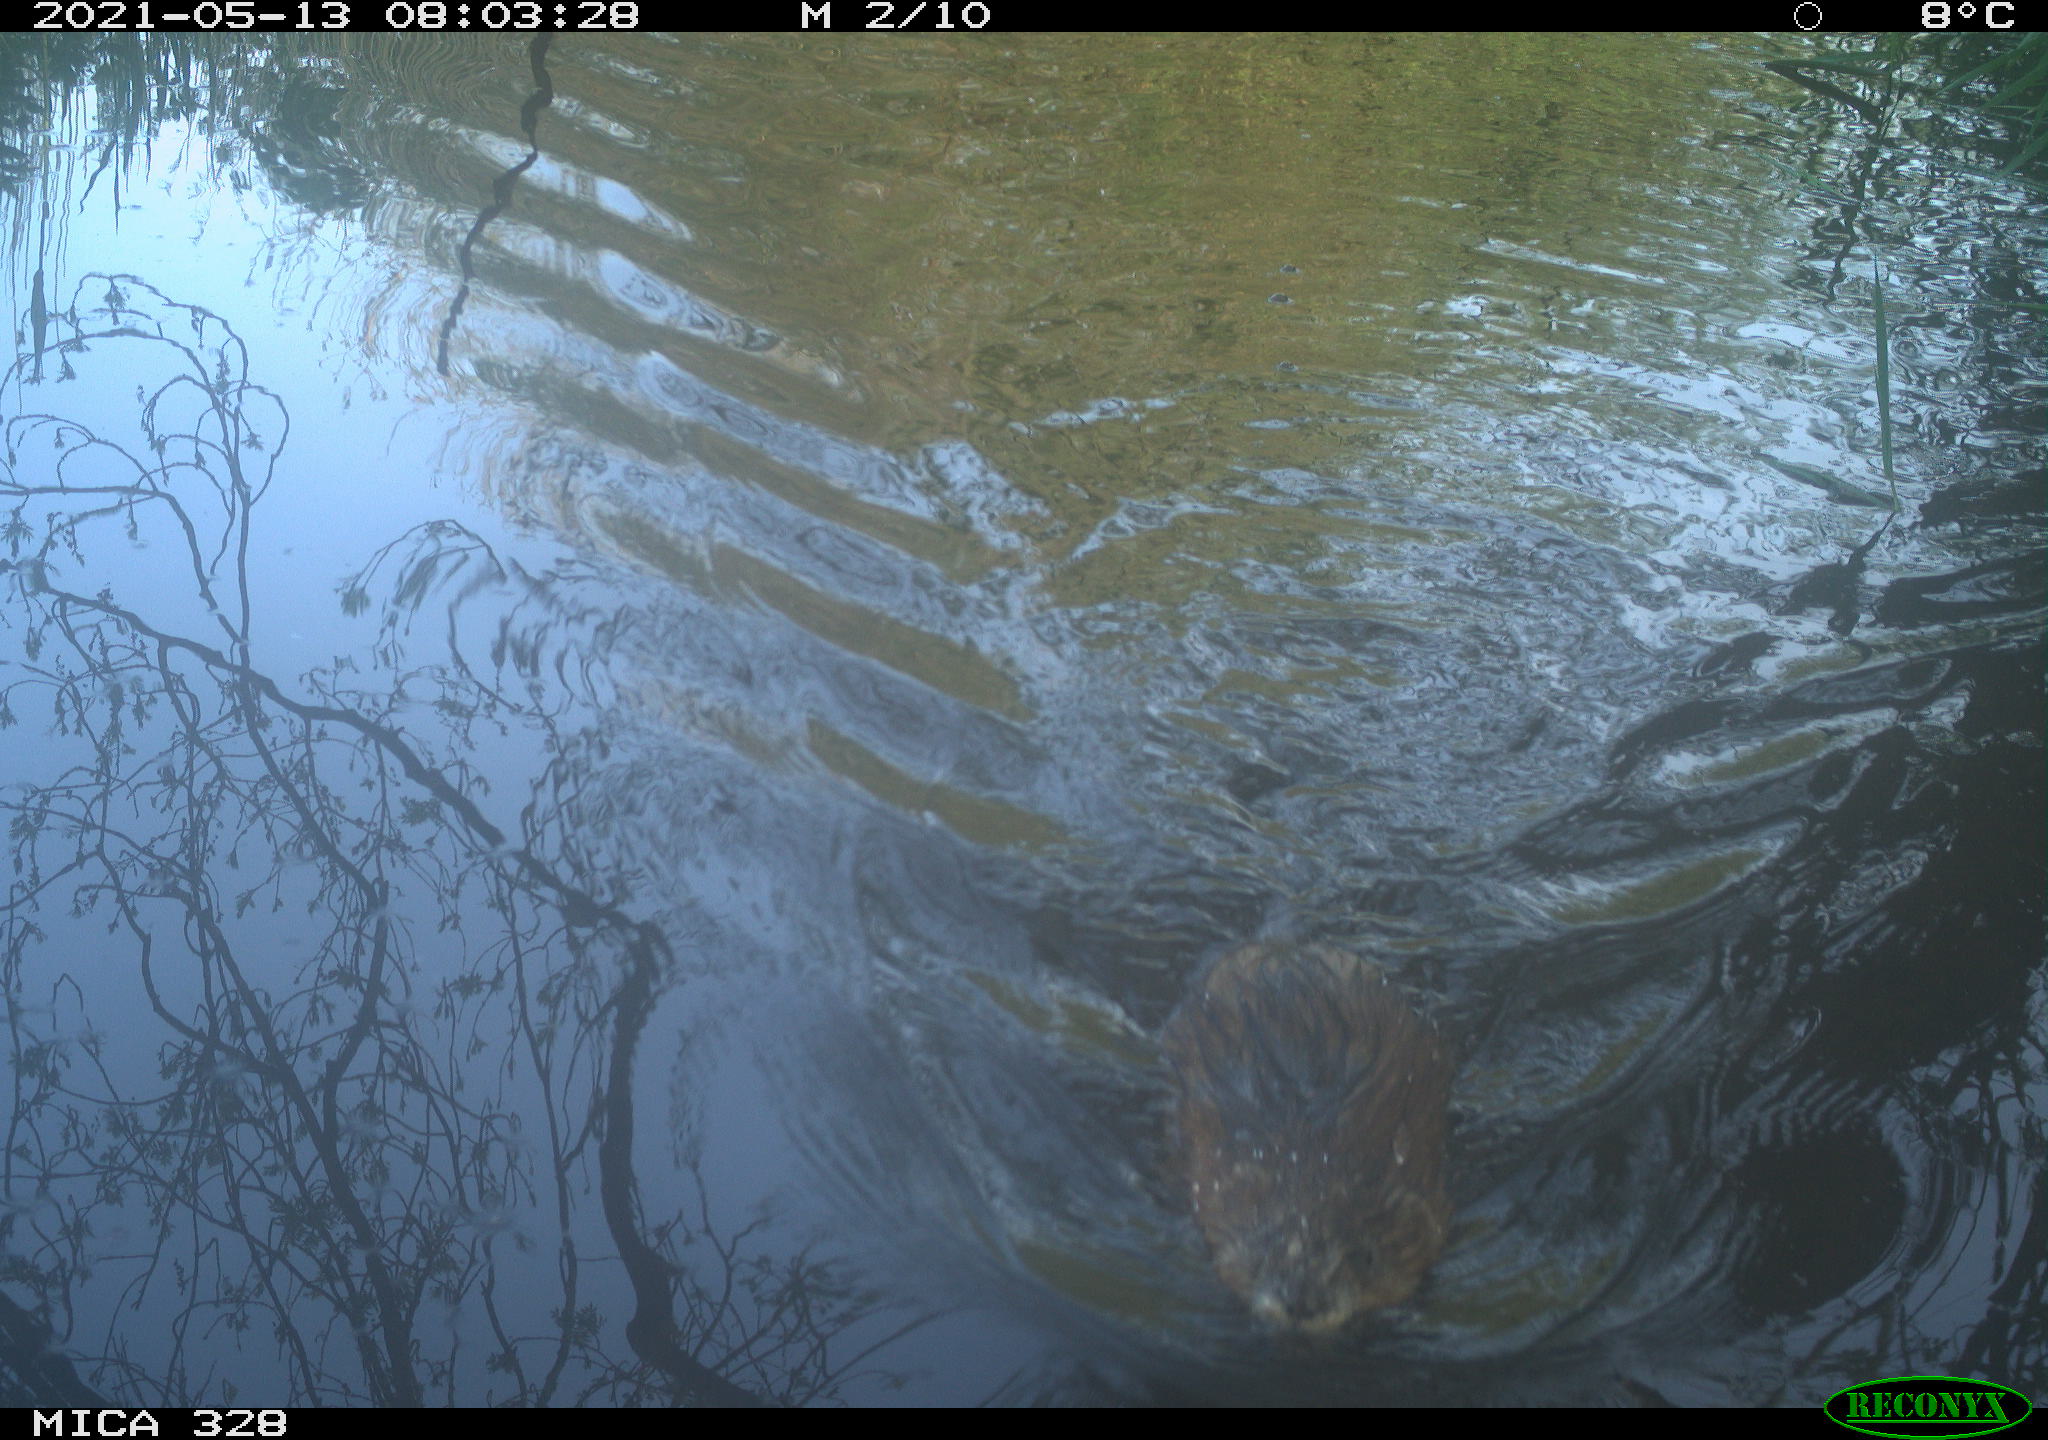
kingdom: Animalia
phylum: Chordata
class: Mammalia
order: Rodentia
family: Cricetidae
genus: Ondatra
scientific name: Ondatra zibethicus
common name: Muskrat
